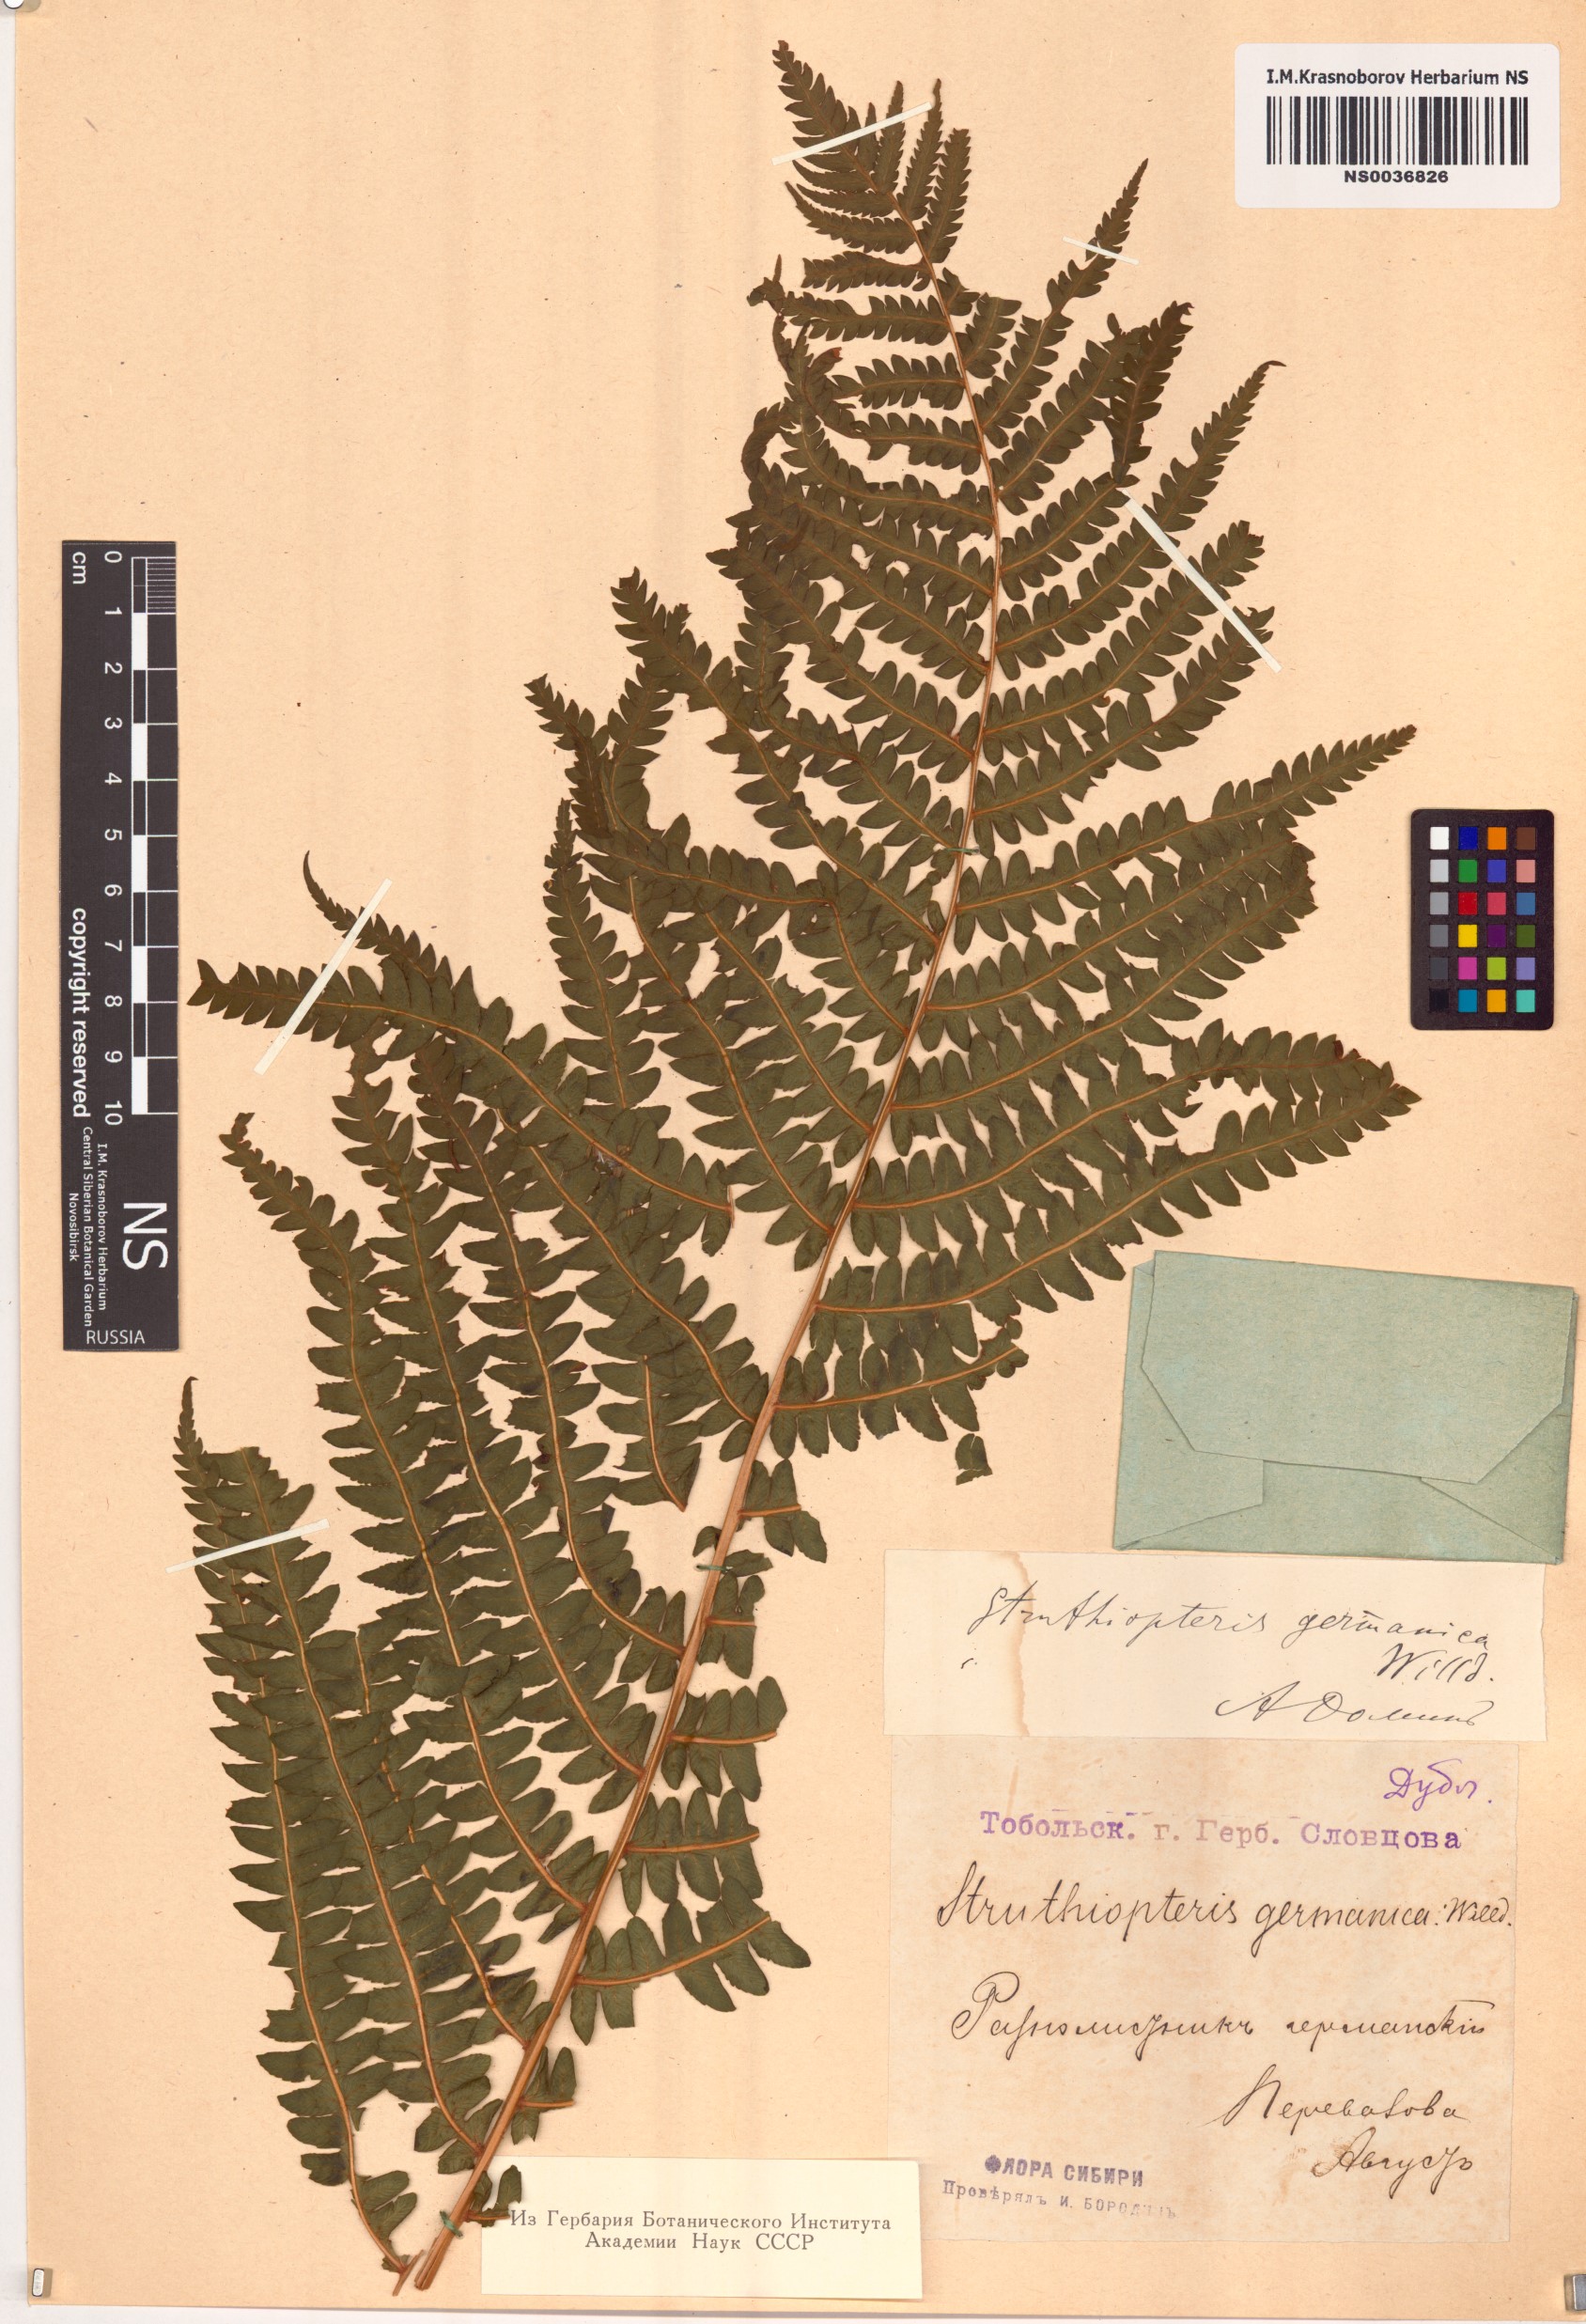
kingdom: Plantae
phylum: Tracheophyta
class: Polypodiopsida
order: Polypodiales
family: Onocleaceae
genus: Matteuccia
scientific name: Matteuccia struthiopteris
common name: Ostrich fern
